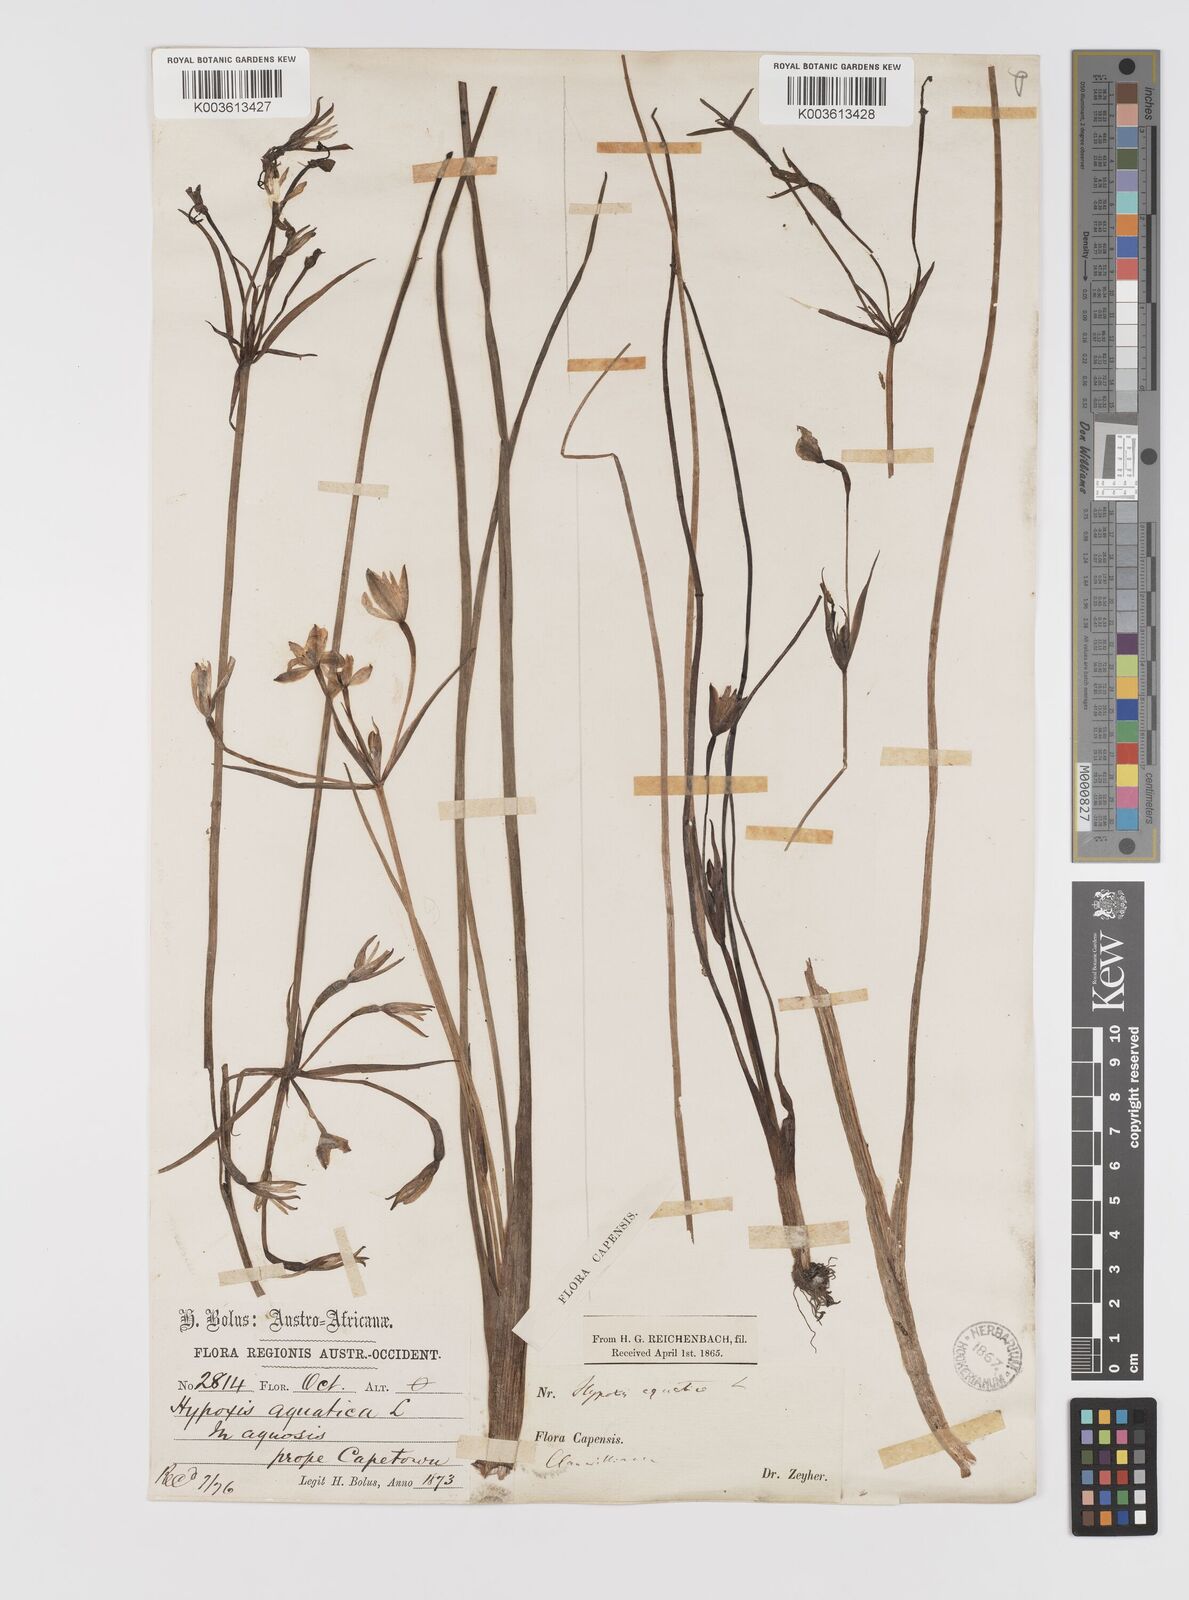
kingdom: Plantae
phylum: Tracheophyta
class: Liliopsida
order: Asparagales
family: Hypoxidaceae
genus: Pauridia
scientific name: Pauridia aquatica
